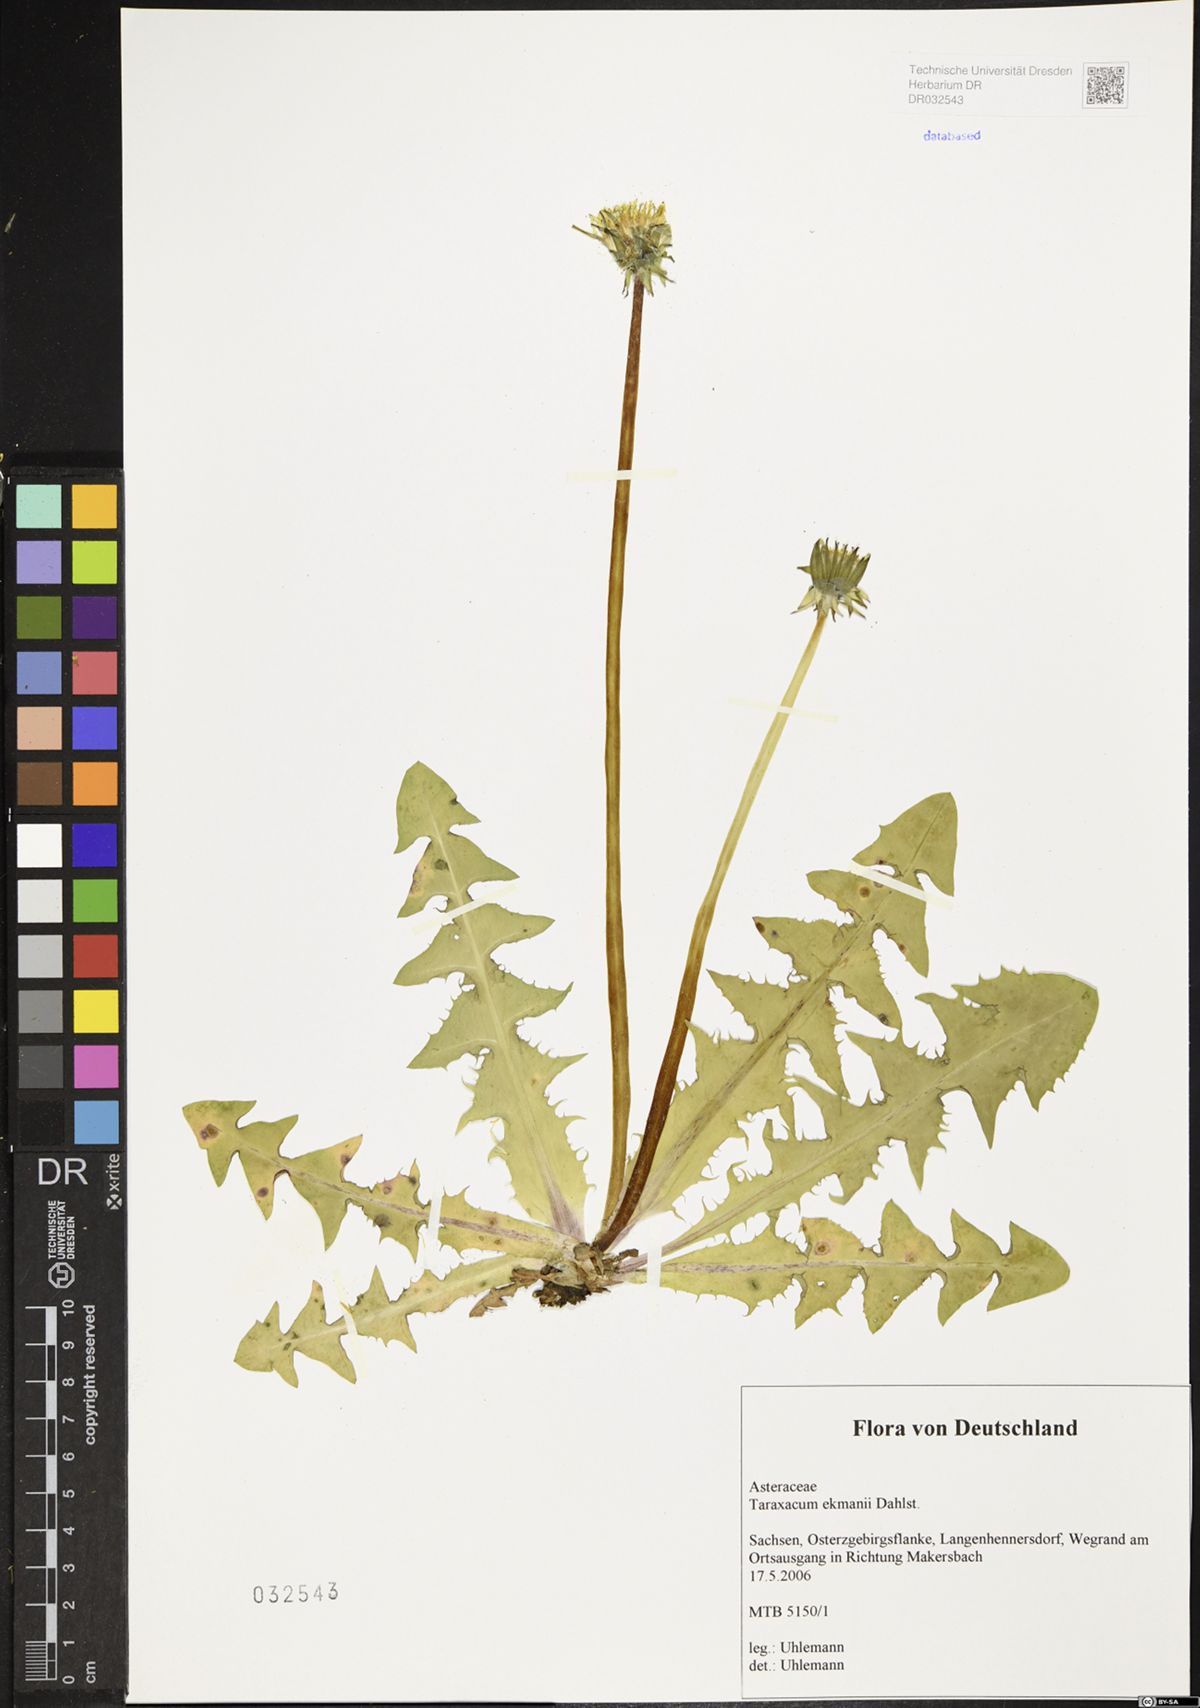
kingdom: Plantae
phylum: Tracheophyta
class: Magnoliopsida
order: Asterales
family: Asteraceae
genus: Taraxacum
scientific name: Taraxacum ekmanii
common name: Ekman's dandelion
